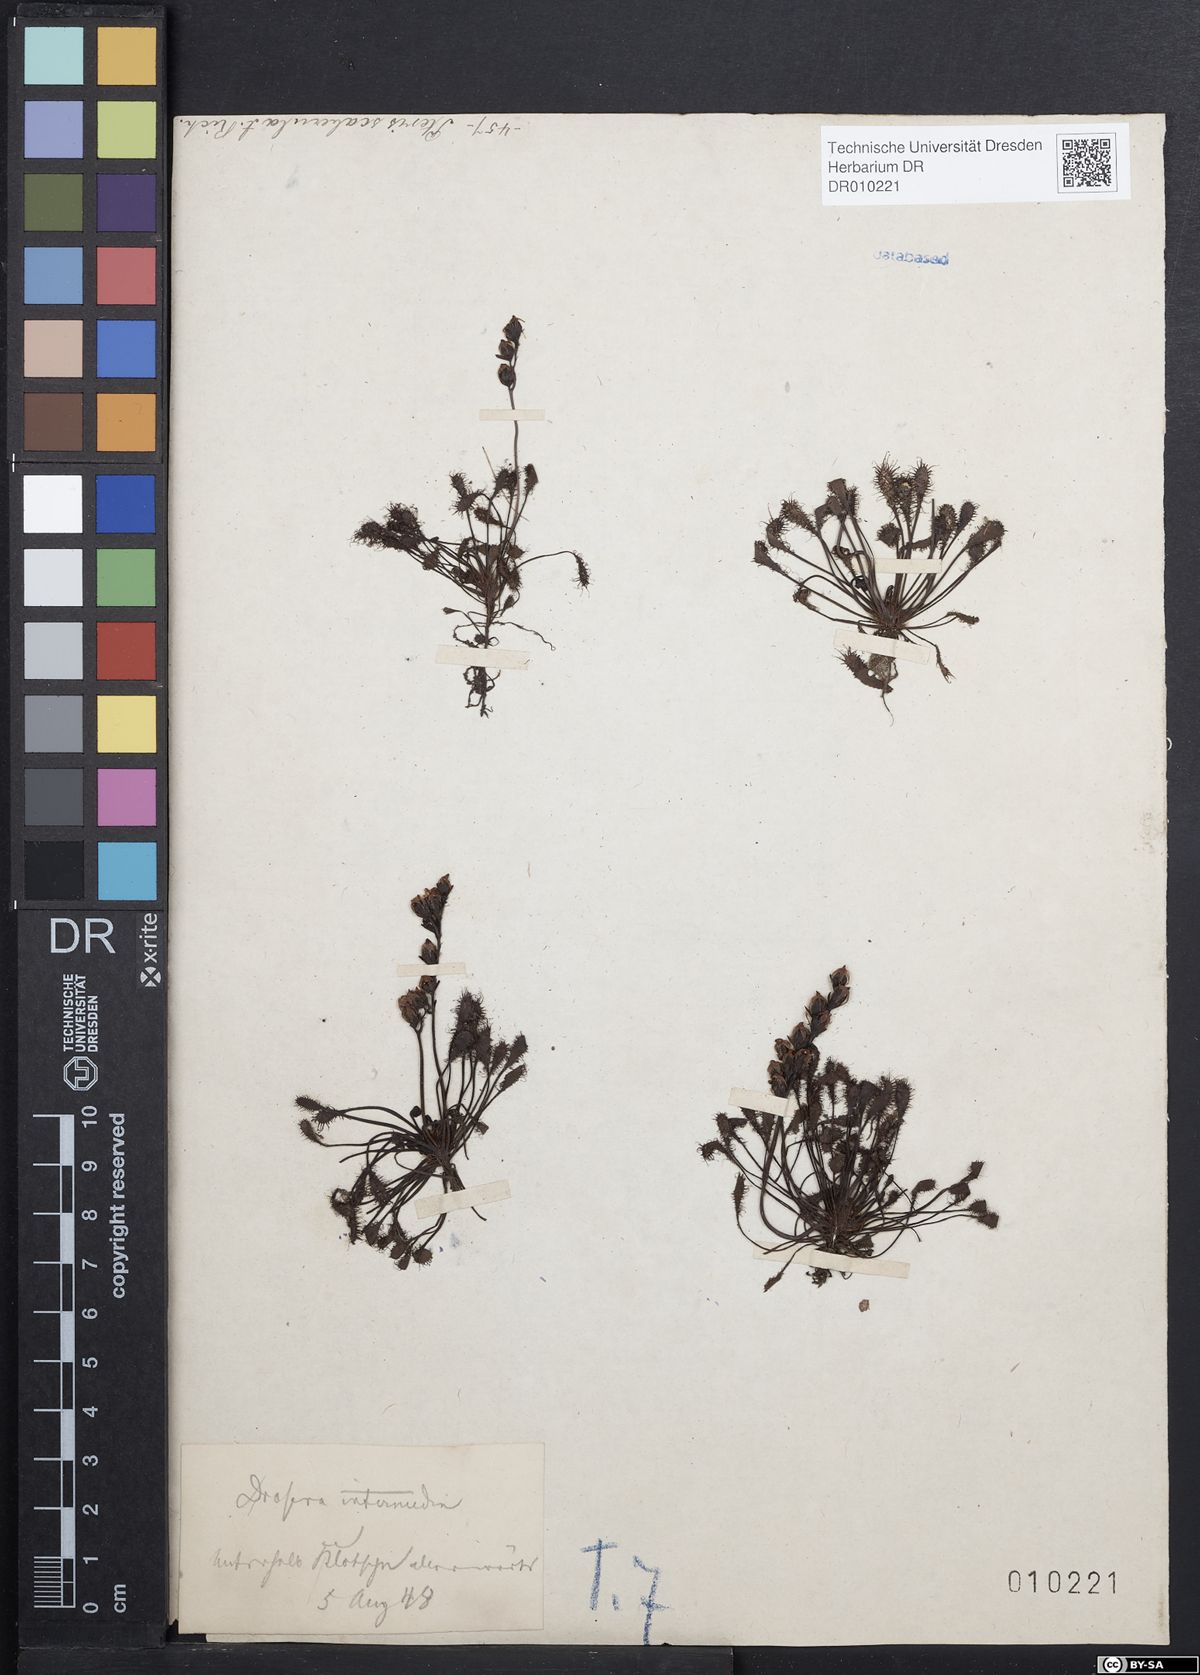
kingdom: Plantae
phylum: Tracheophyta
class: Magnoliopsida
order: Caryophyllales
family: Droseraceae
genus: Drosera
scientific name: Drosera intermedia
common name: Oblong-leaved sundew
